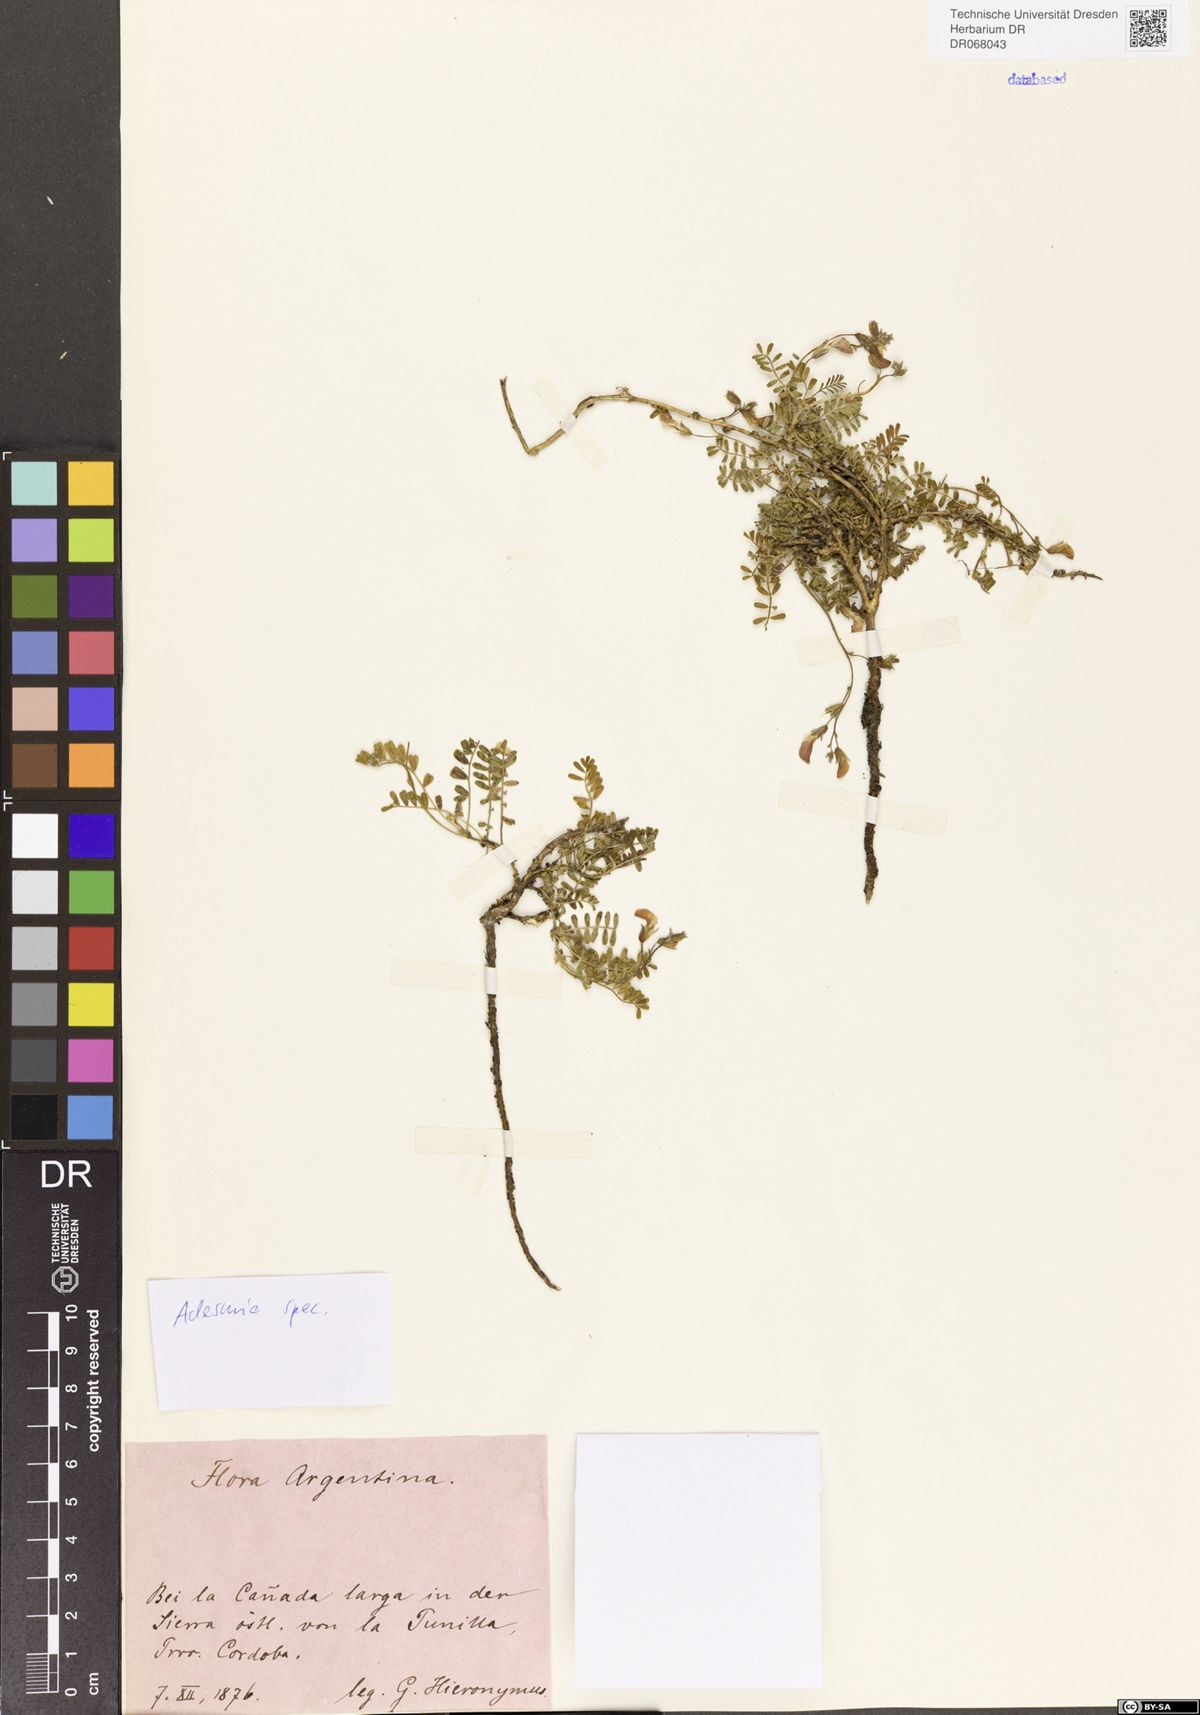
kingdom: Plantae
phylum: Tracheophyta
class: Magnoliopsida
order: Fabales
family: Fabaceae
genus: Adesmia
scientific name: Adesmia
